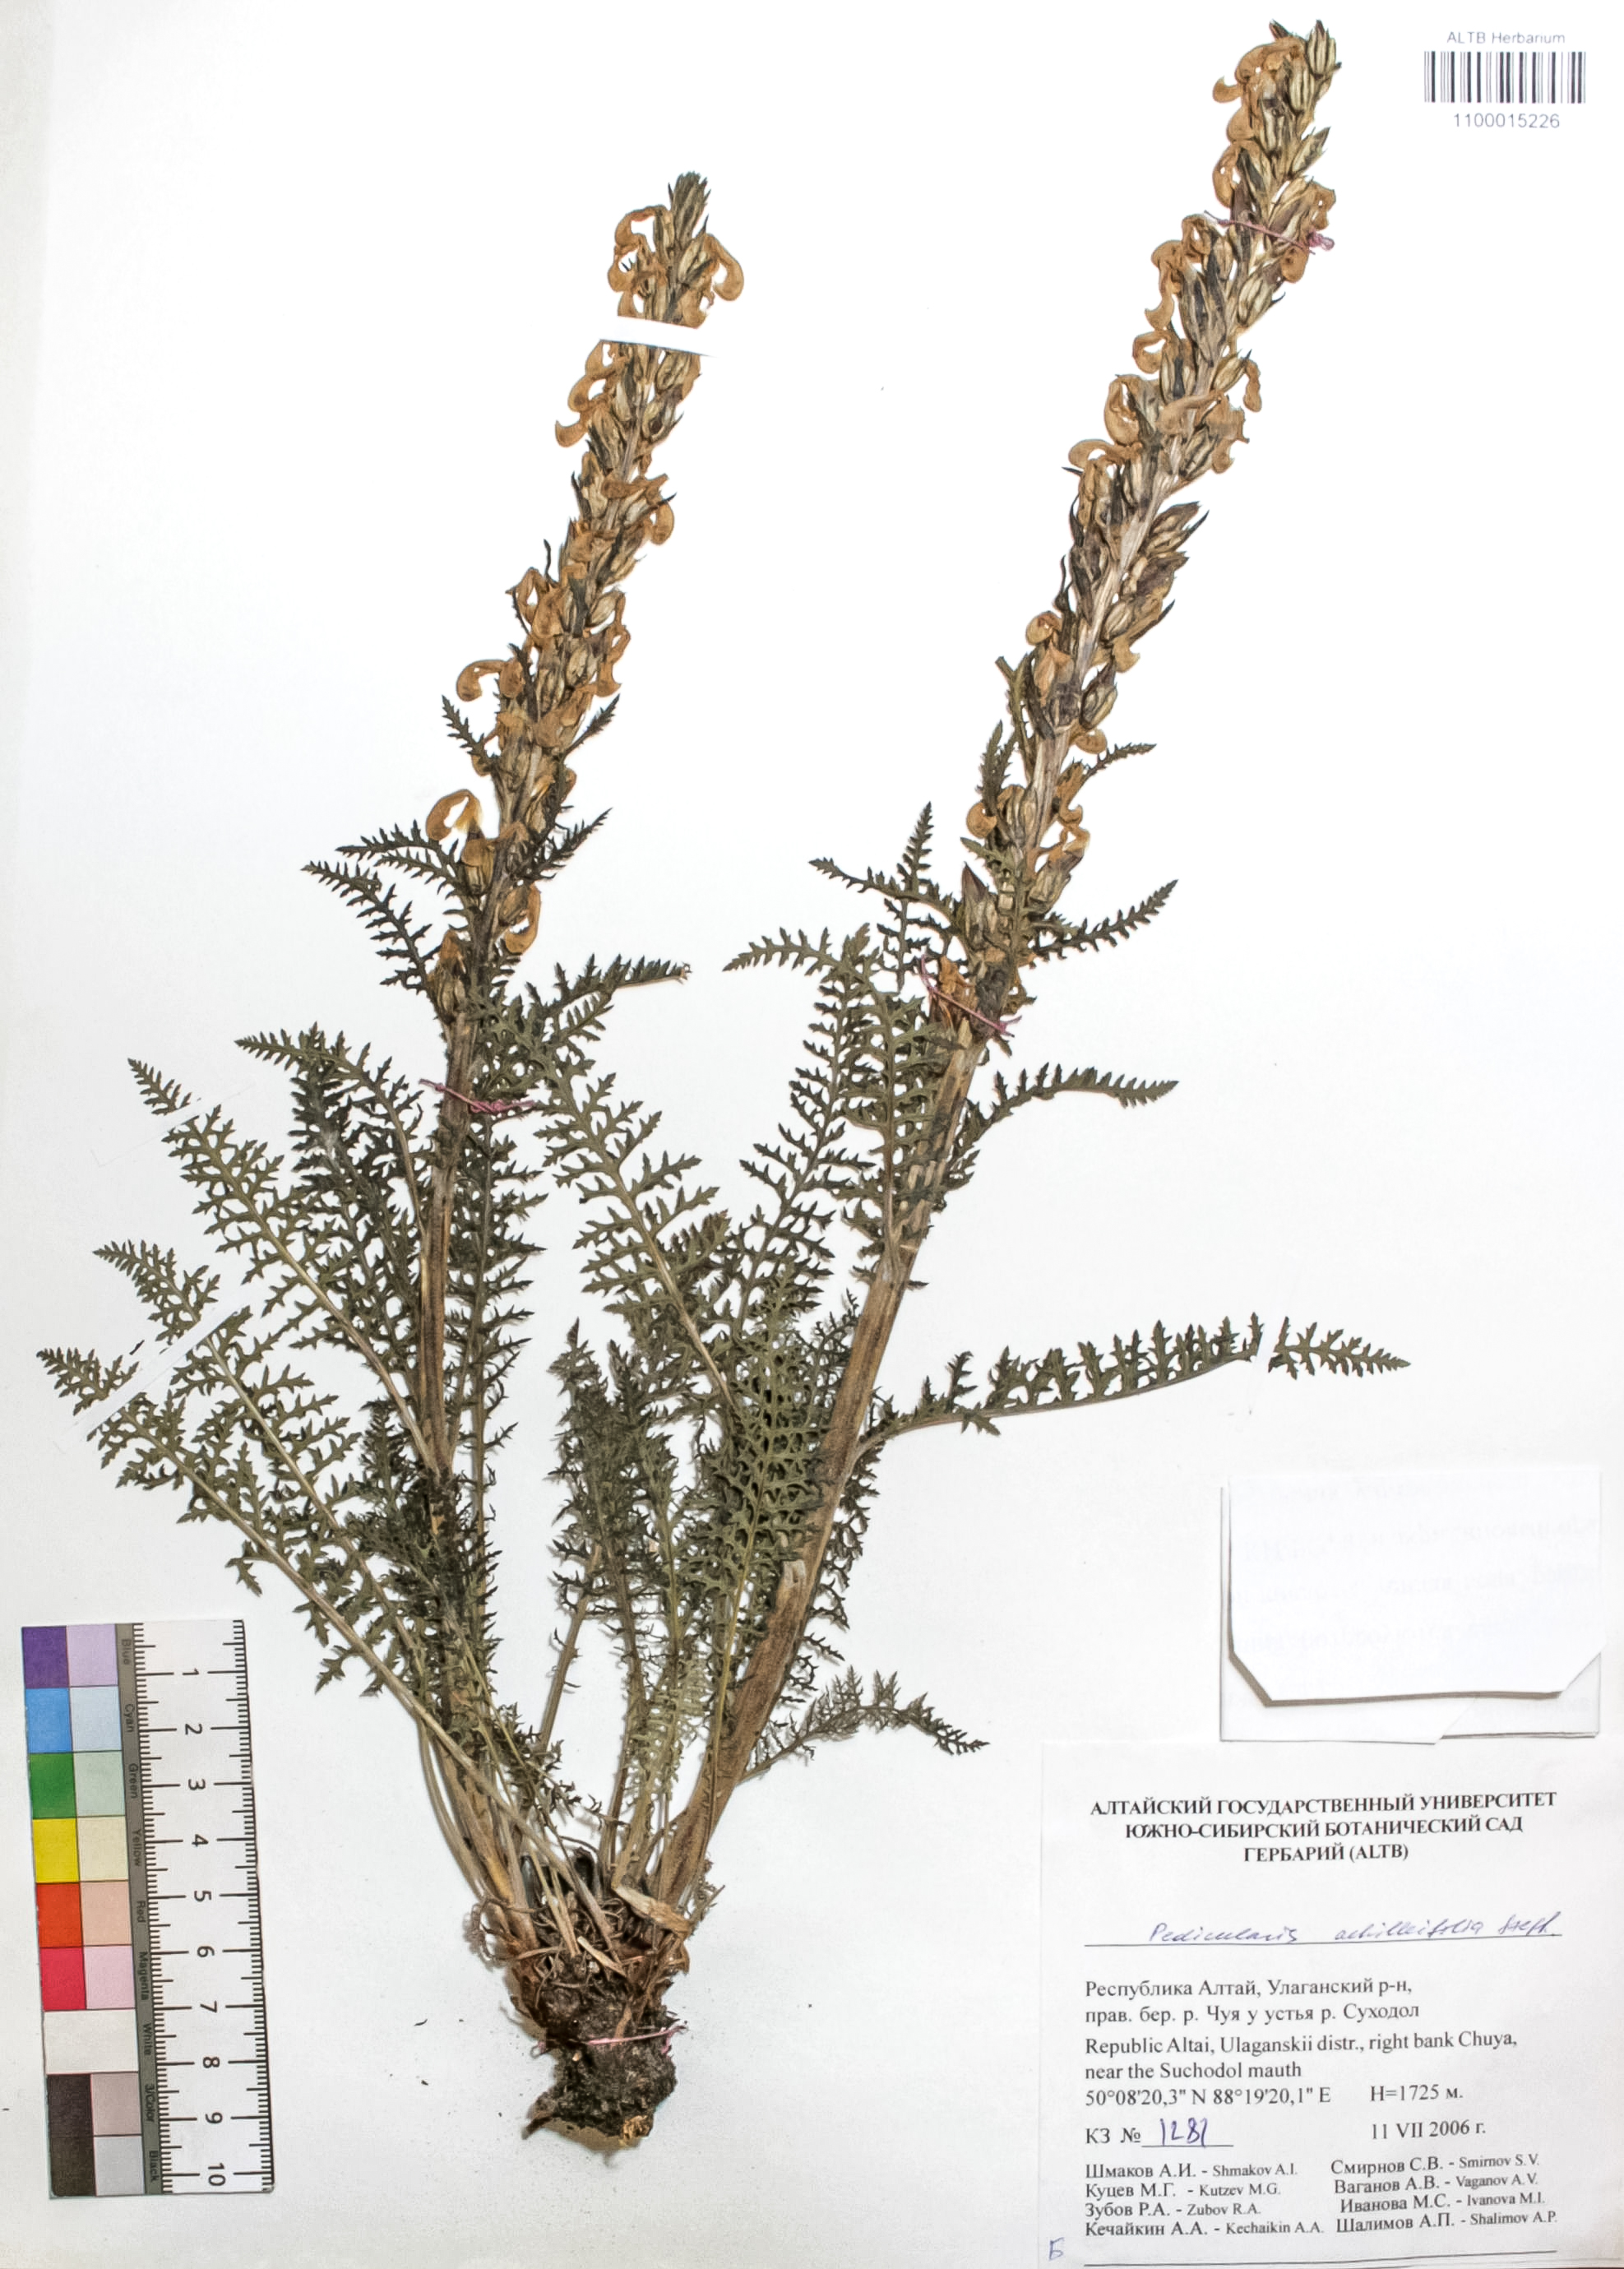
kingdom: Plantae
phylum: Tracheophyta
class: Magnoliopsida
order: Lamiales
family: Orobanchaceae
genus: Pedicularis
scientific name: Pedicularis anthemifolia
